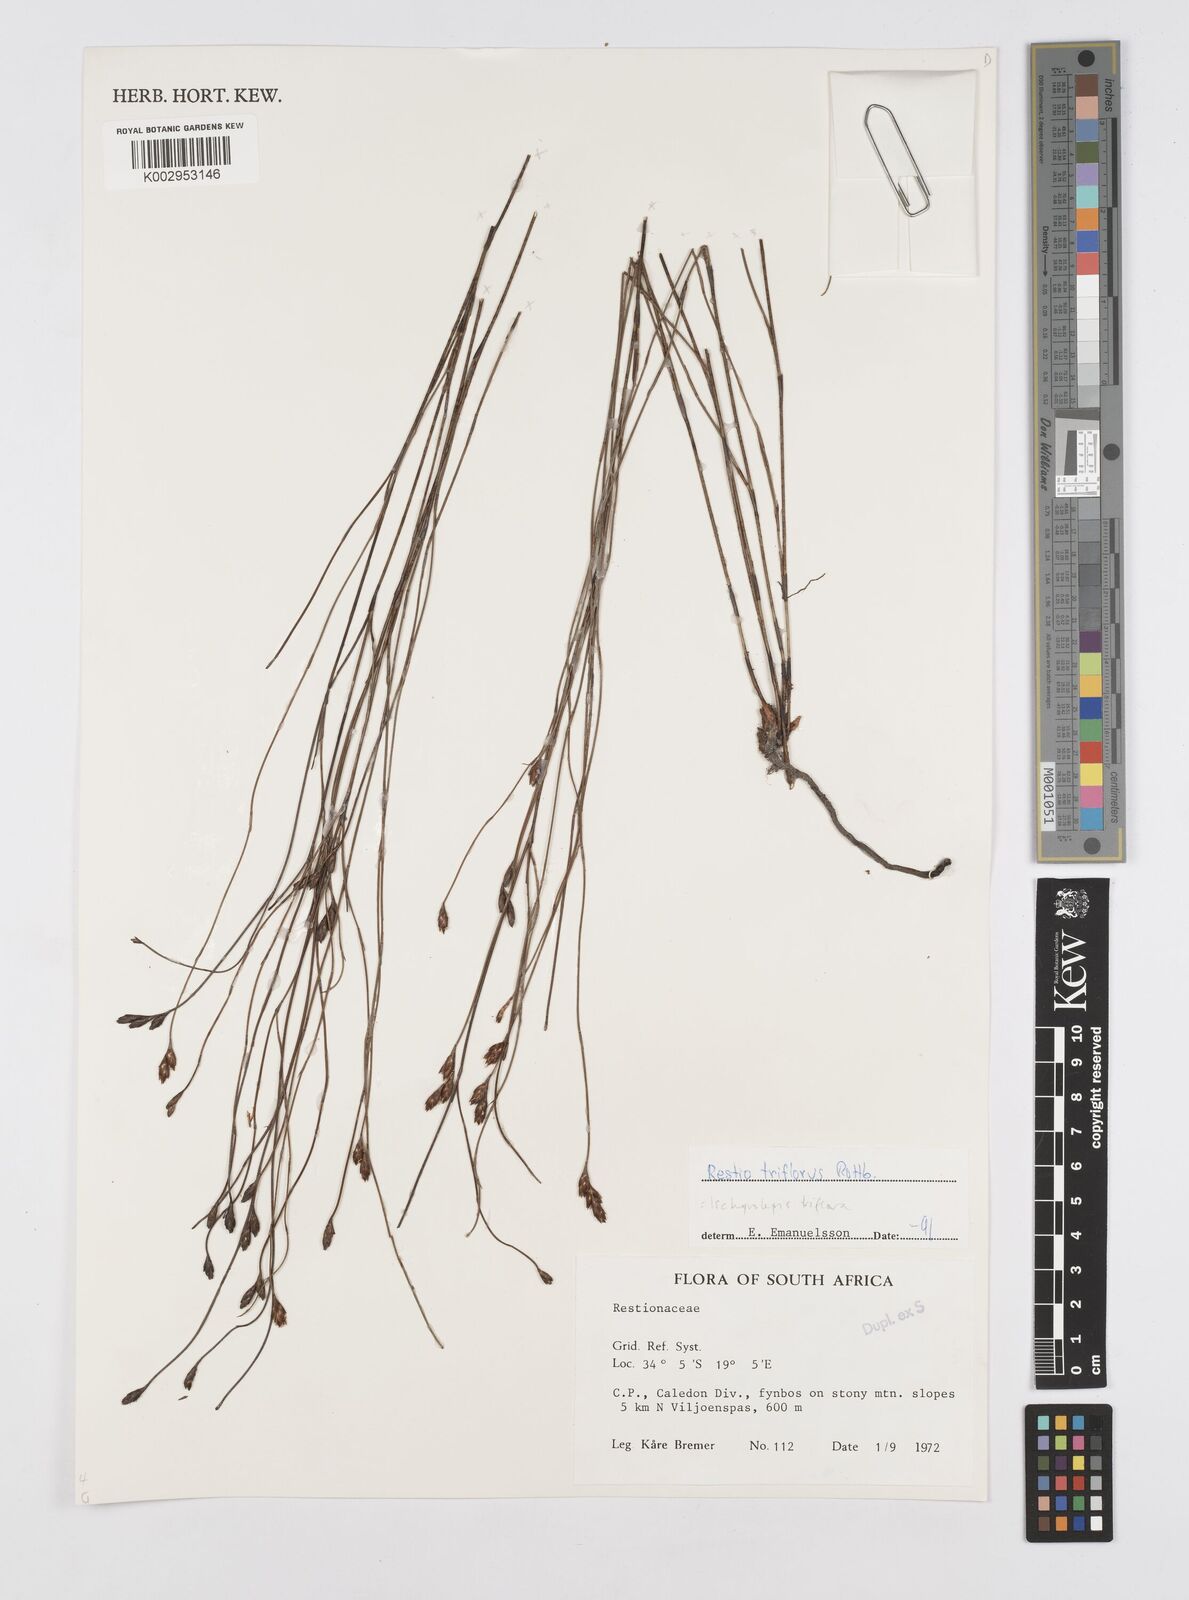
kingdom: Plantae
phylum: Tracheophyta
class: Liliopsida
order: Poales
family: Restionaceae
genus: Restio
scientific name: Restio triflorus
